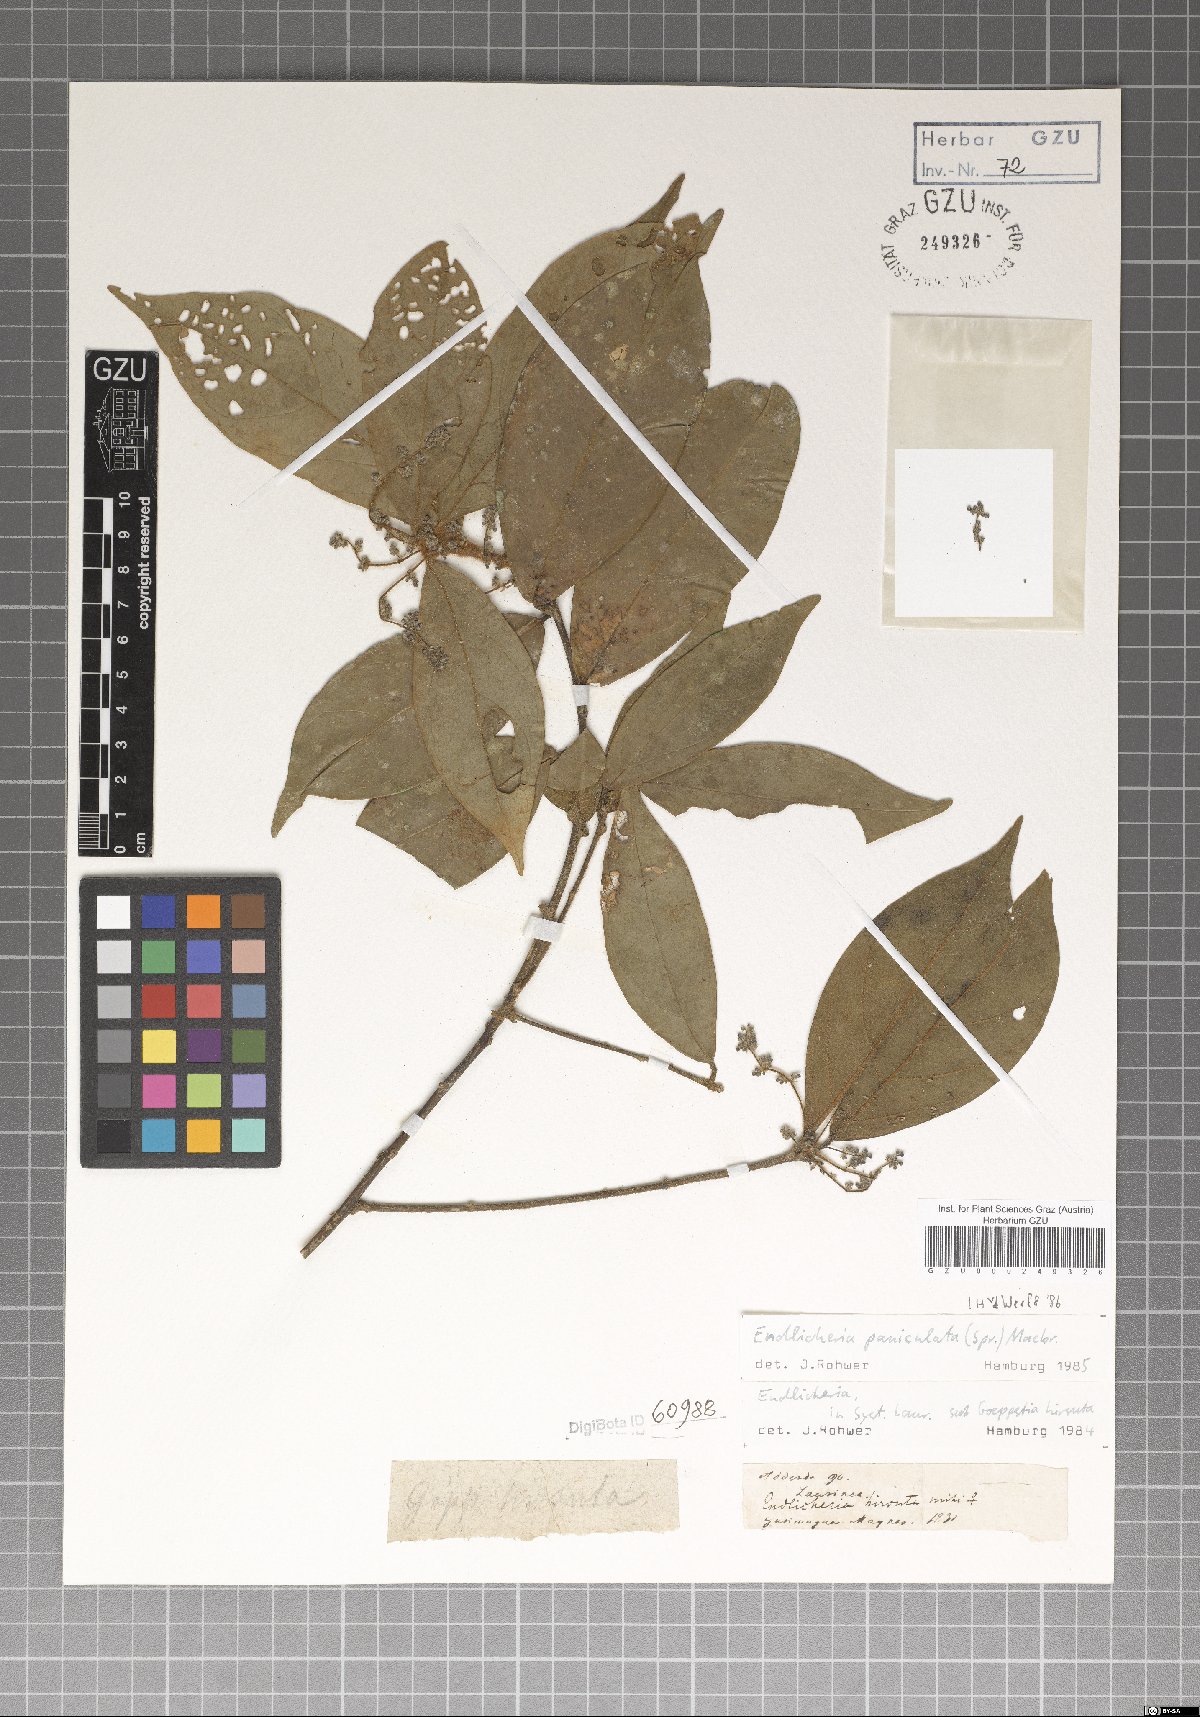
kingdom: Plantae
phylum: Tracheophyta
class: Magnoliopsida
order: Laurales
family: Lauraceae
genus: Endlicheria
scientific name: Endlicheria paniculata
